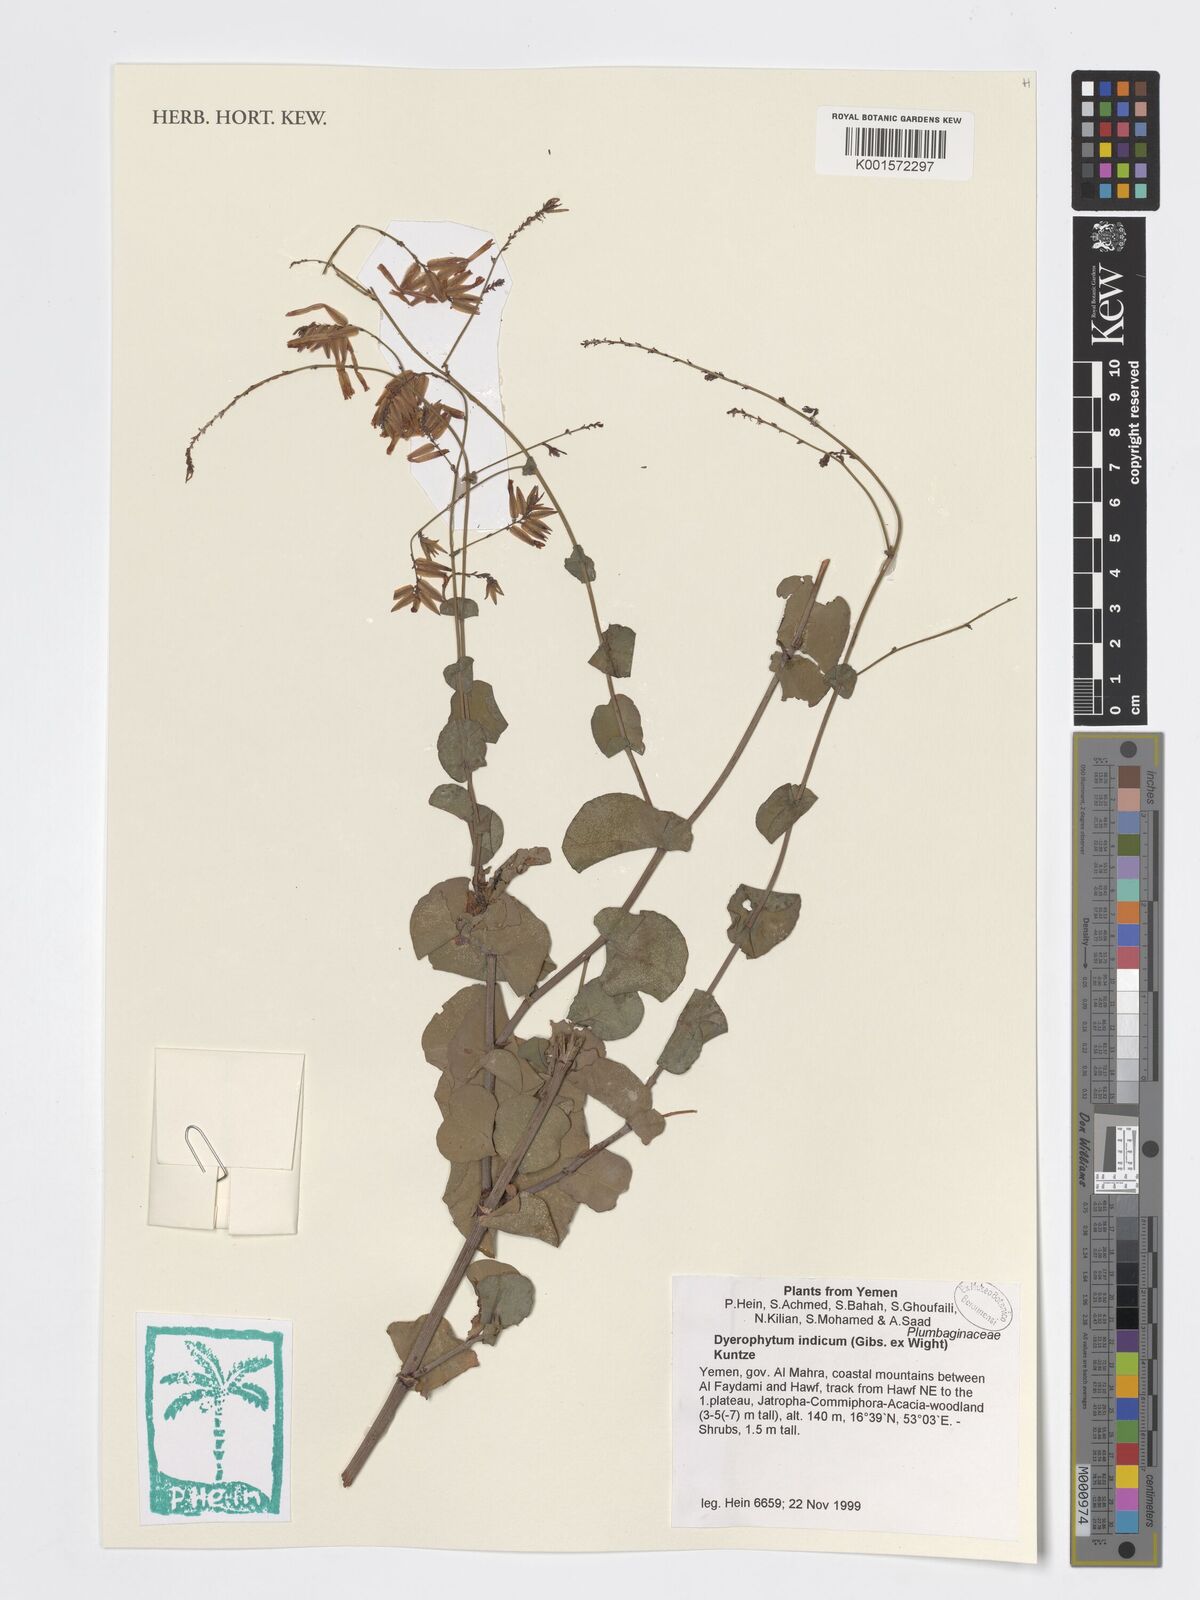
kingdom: Plantae
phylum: Tracheophyta
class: Magnoliopsida
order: Caryophyllales
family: Plumbaginaceae
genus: Dyerophytum
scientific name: Dyerophytum indicum
